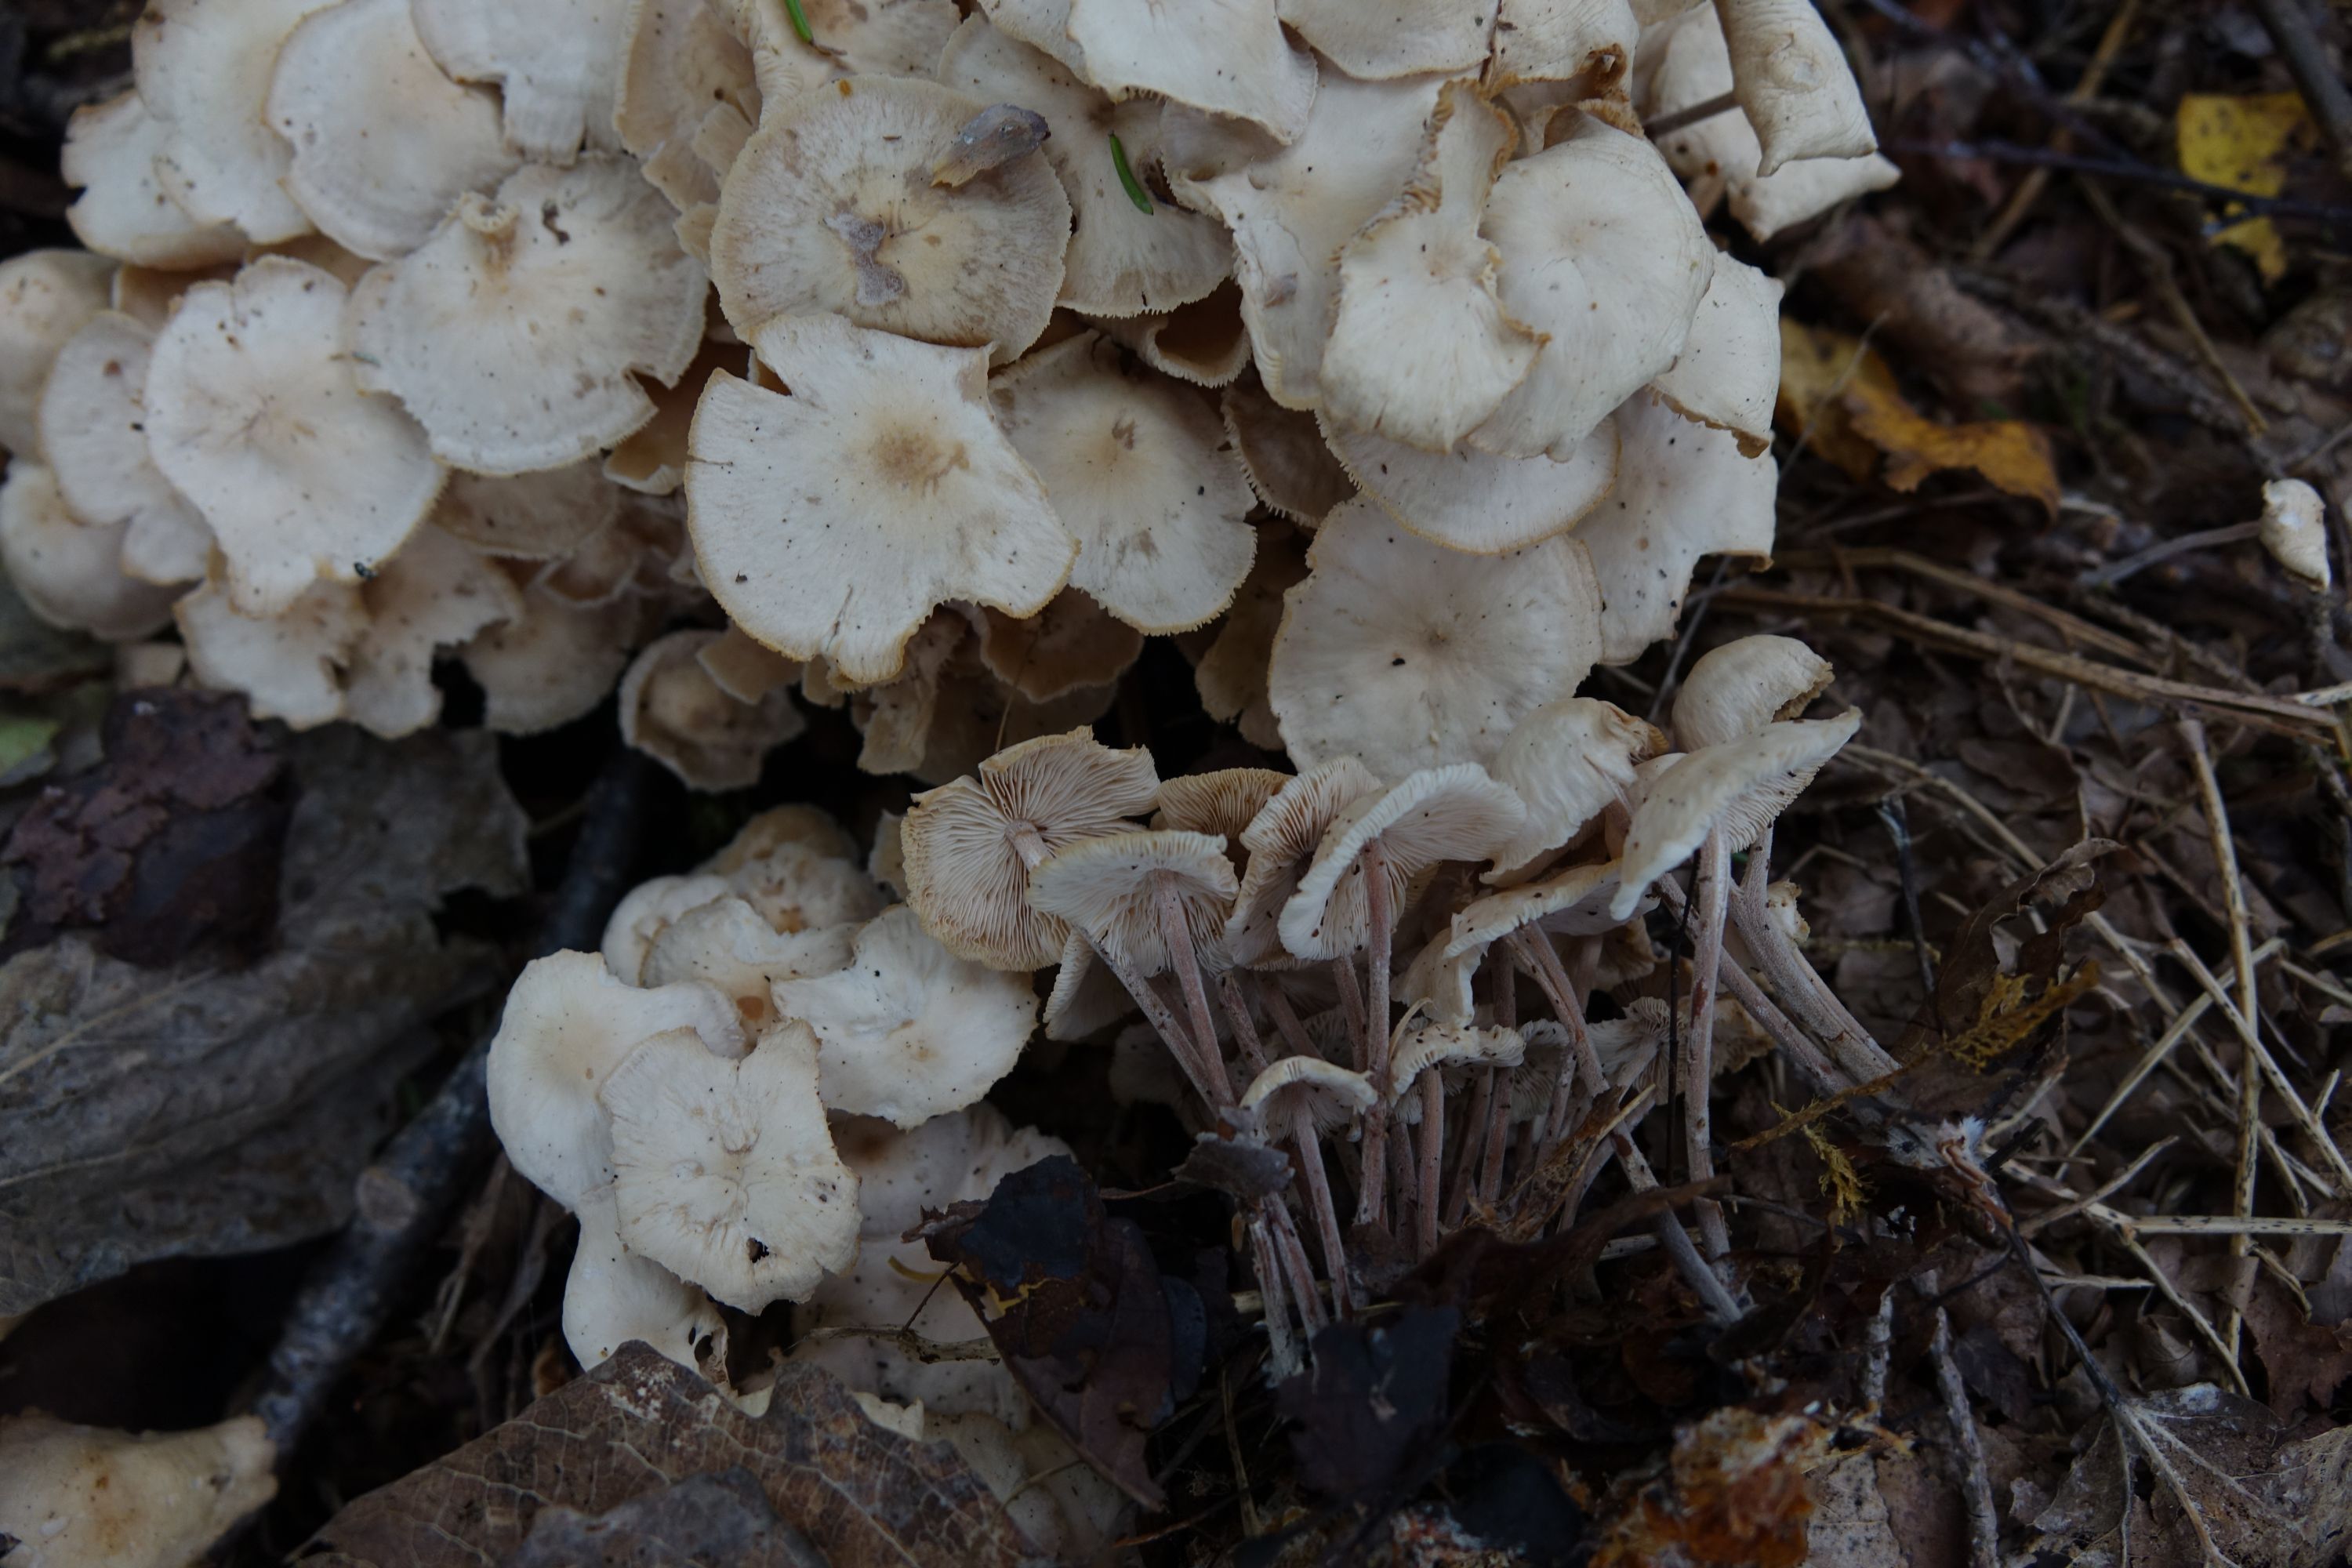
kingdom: Fungi
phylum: Basidiomycota
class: Agaricomycetes
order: Agaricales
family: Omphalotaceae
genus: Collybiopsis
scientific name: Collybiopsis confluens
